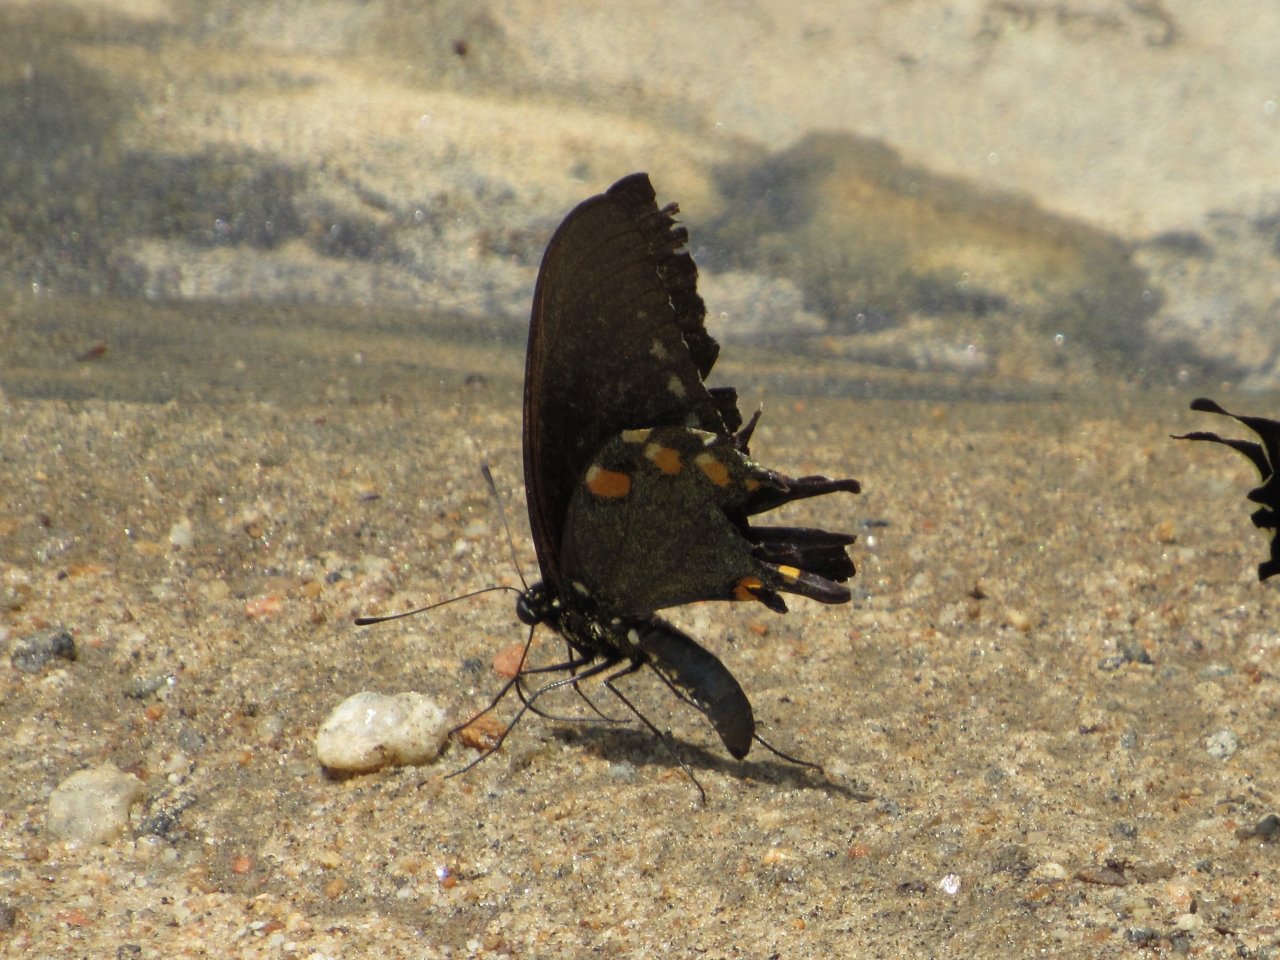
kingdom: Animalia
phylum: Arthropoda
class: Insecta
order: Lepidoptera
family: Papilionidae
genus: Battus
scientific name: Battus philenor
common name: Pipevine Swallowtail
